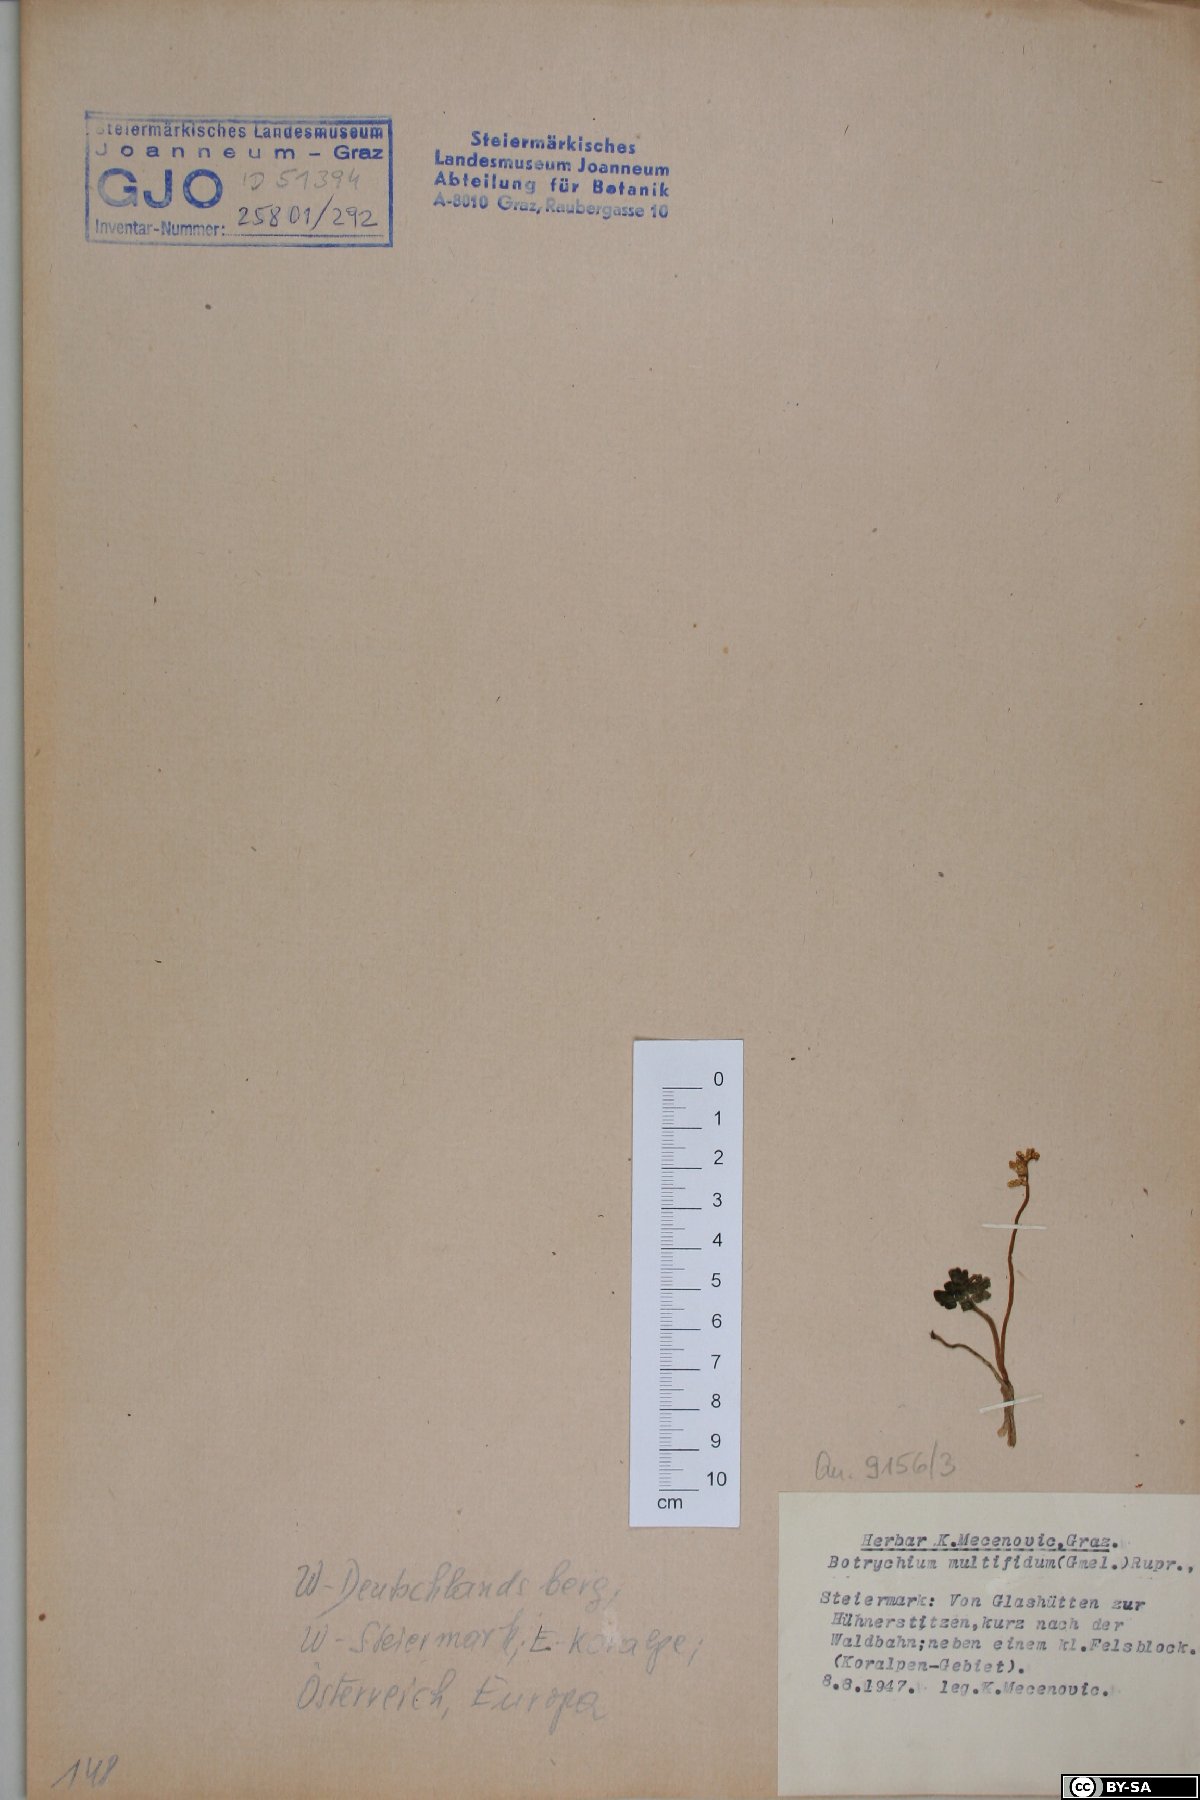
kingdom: Plantae
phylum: Tracheophyta
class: Polypodiopsida
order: Ophioglossales
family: Ophioglossaceae
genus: Sceptridium
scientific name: Sceptridium multifidum
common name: Leathery grape fern
